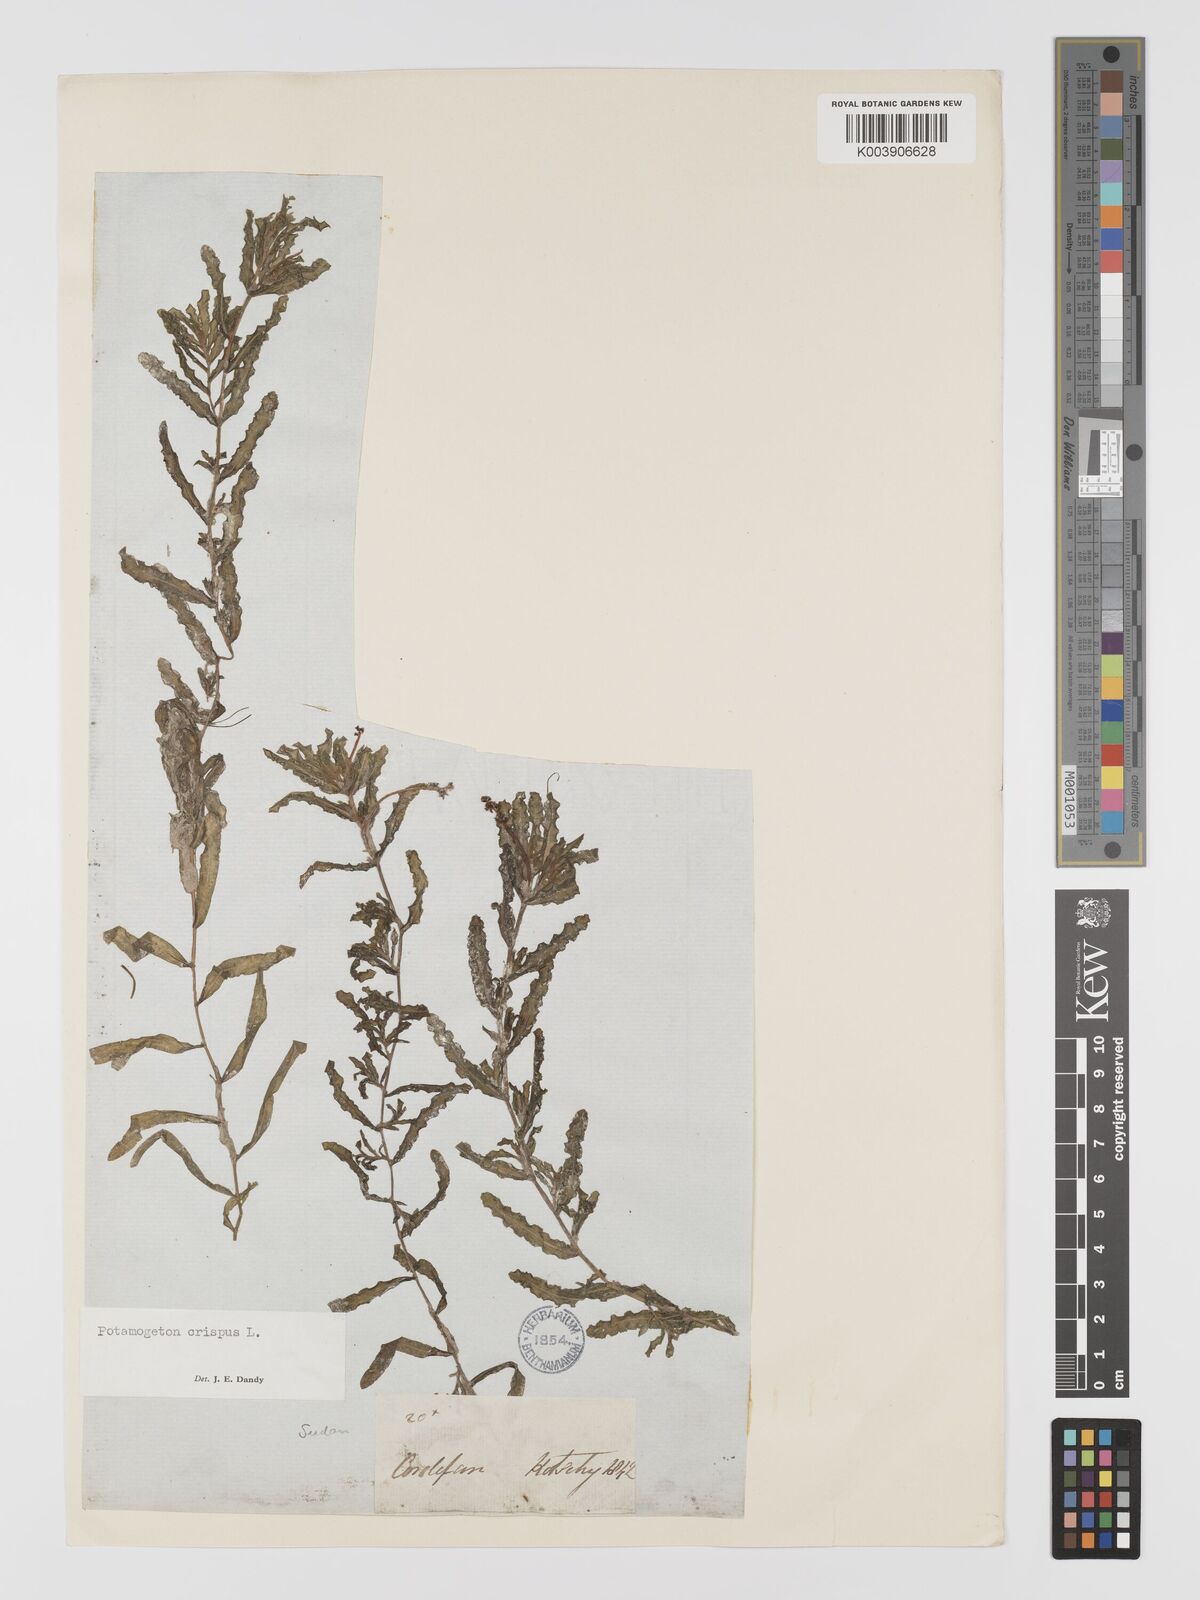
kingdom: Plantae
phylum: Tracheophyta
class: Liliopsida
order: Alismatales
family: Potamogetonaceae
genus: Potamogeton
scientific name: Potamogeton crispus
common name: Curled pondweed
